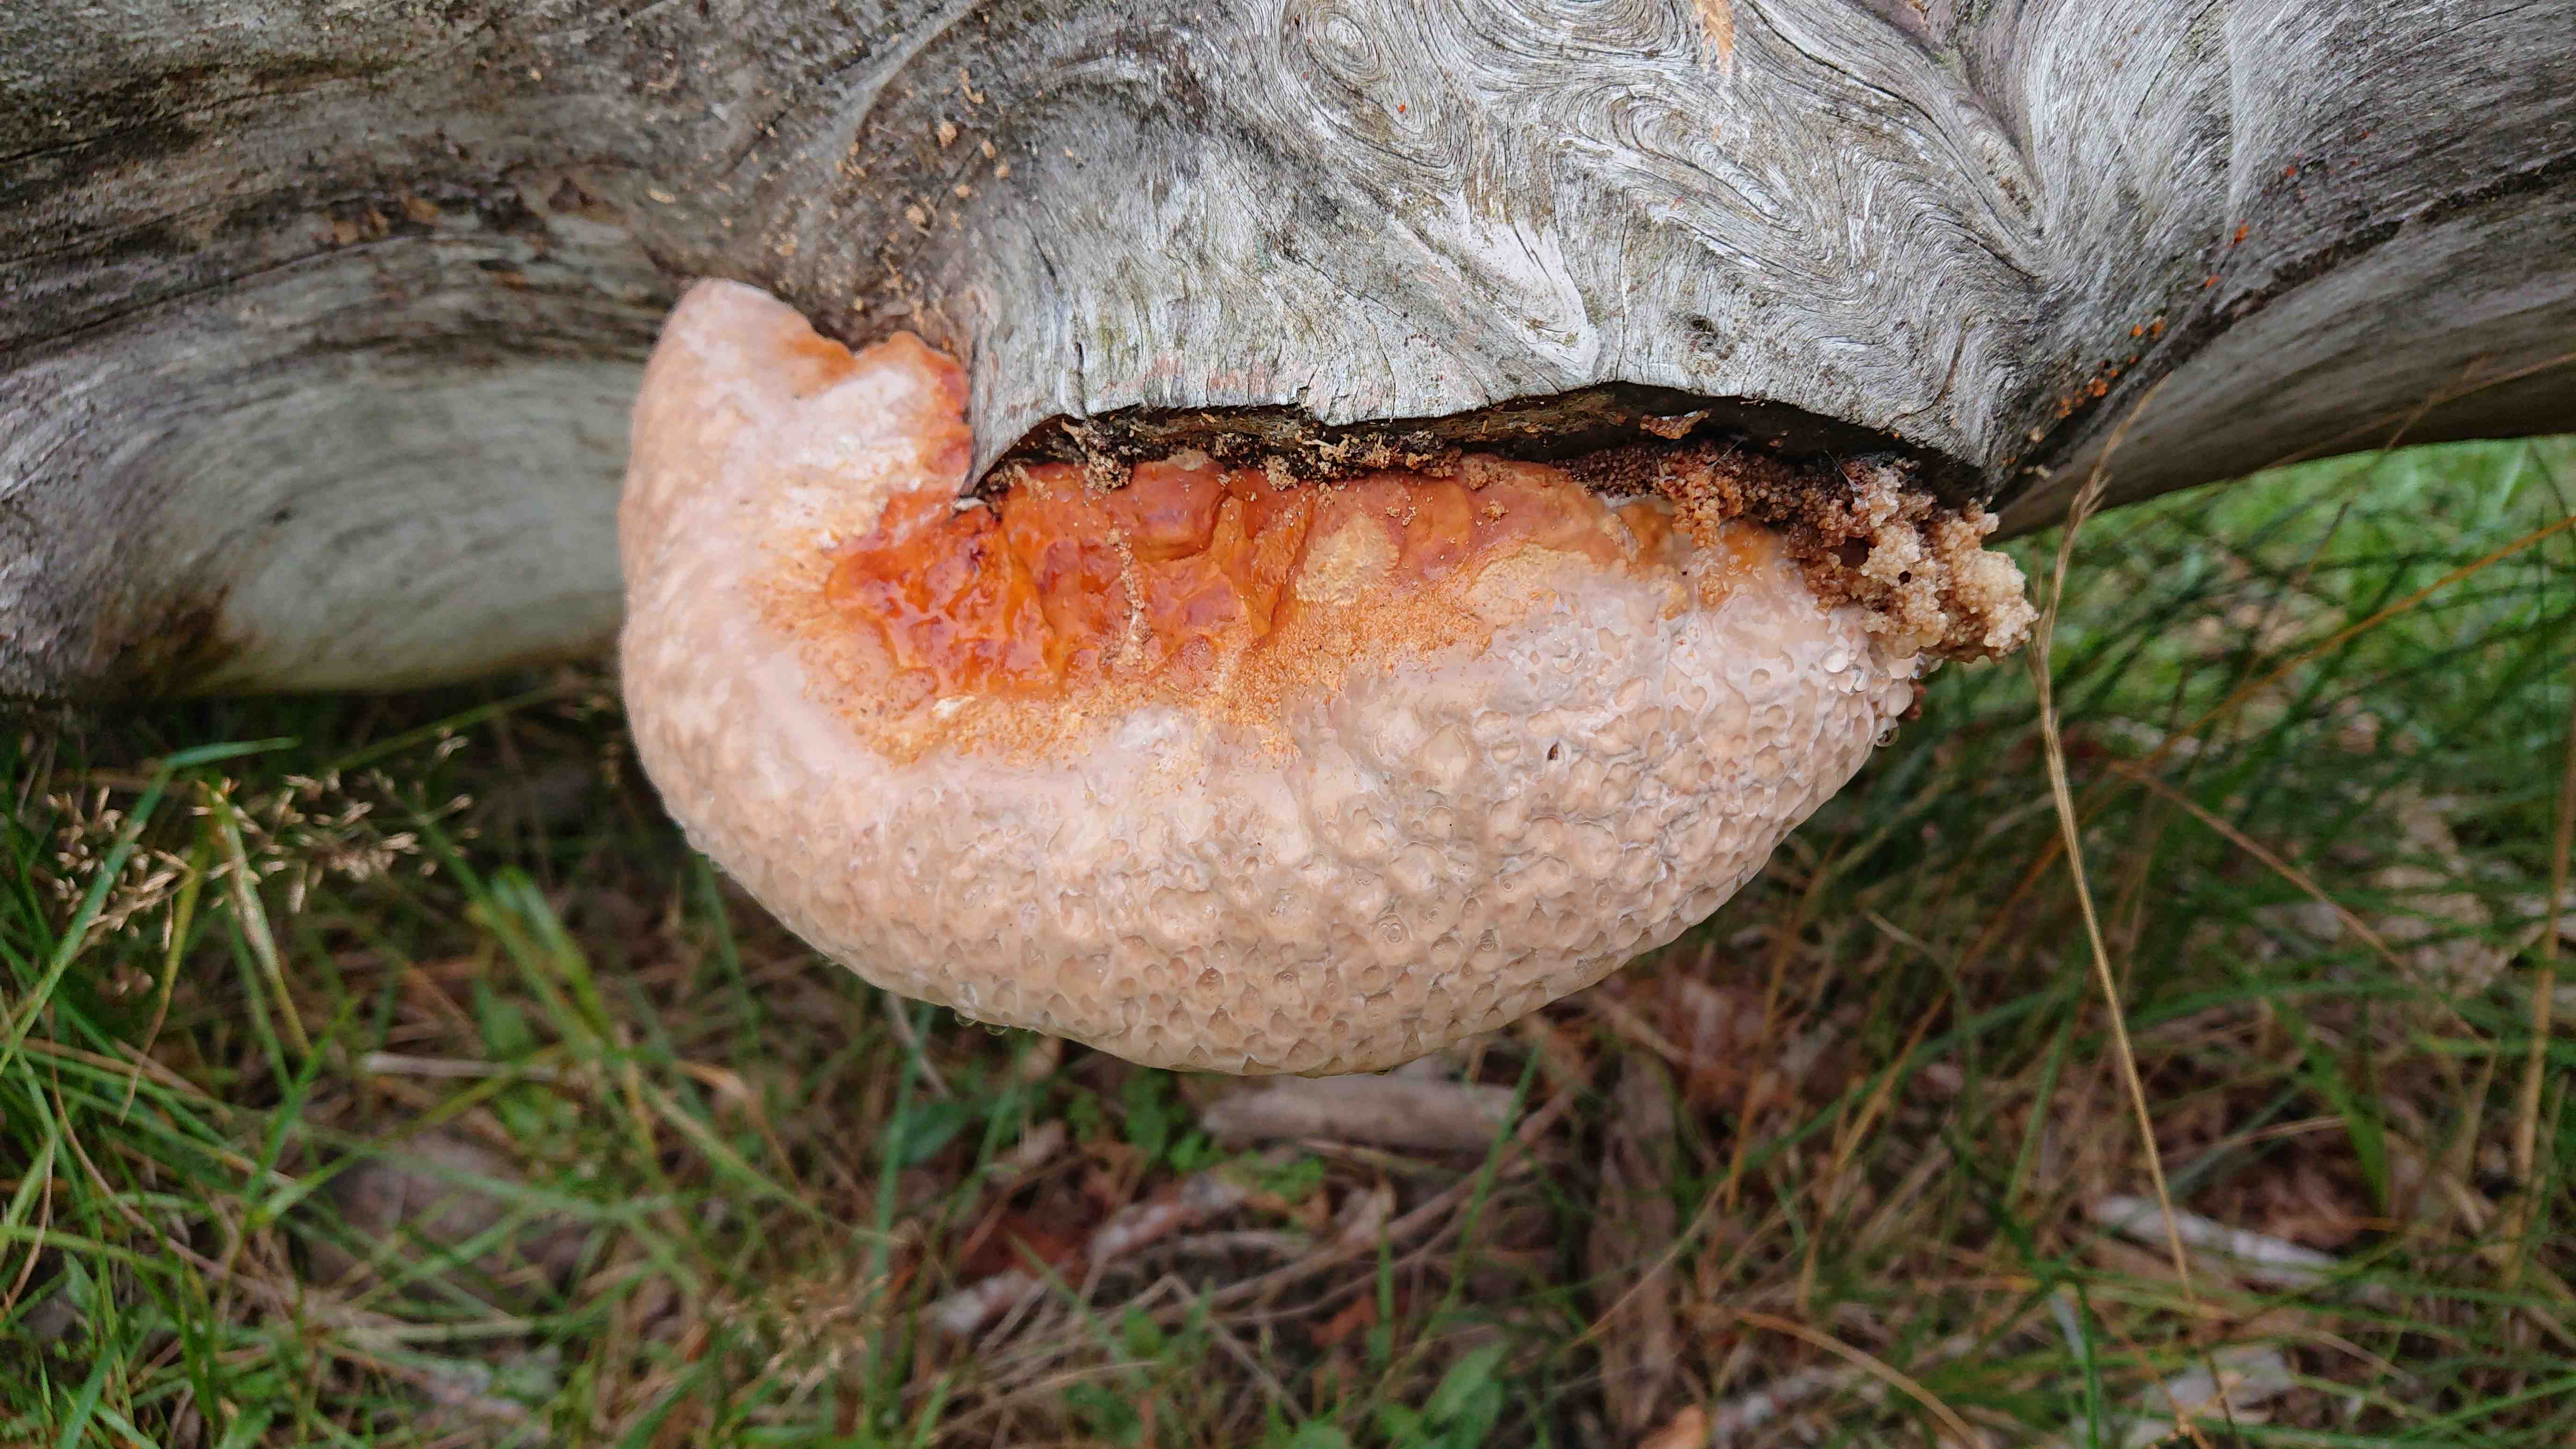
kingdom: Fungi
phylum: Basidiomycota
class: Agaricomycetes
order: Polyporales
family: Fomitopsidaceae
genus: Fomitopsis
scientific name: Fomitopsis pinicola
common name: randbæltet hovporesvamp
